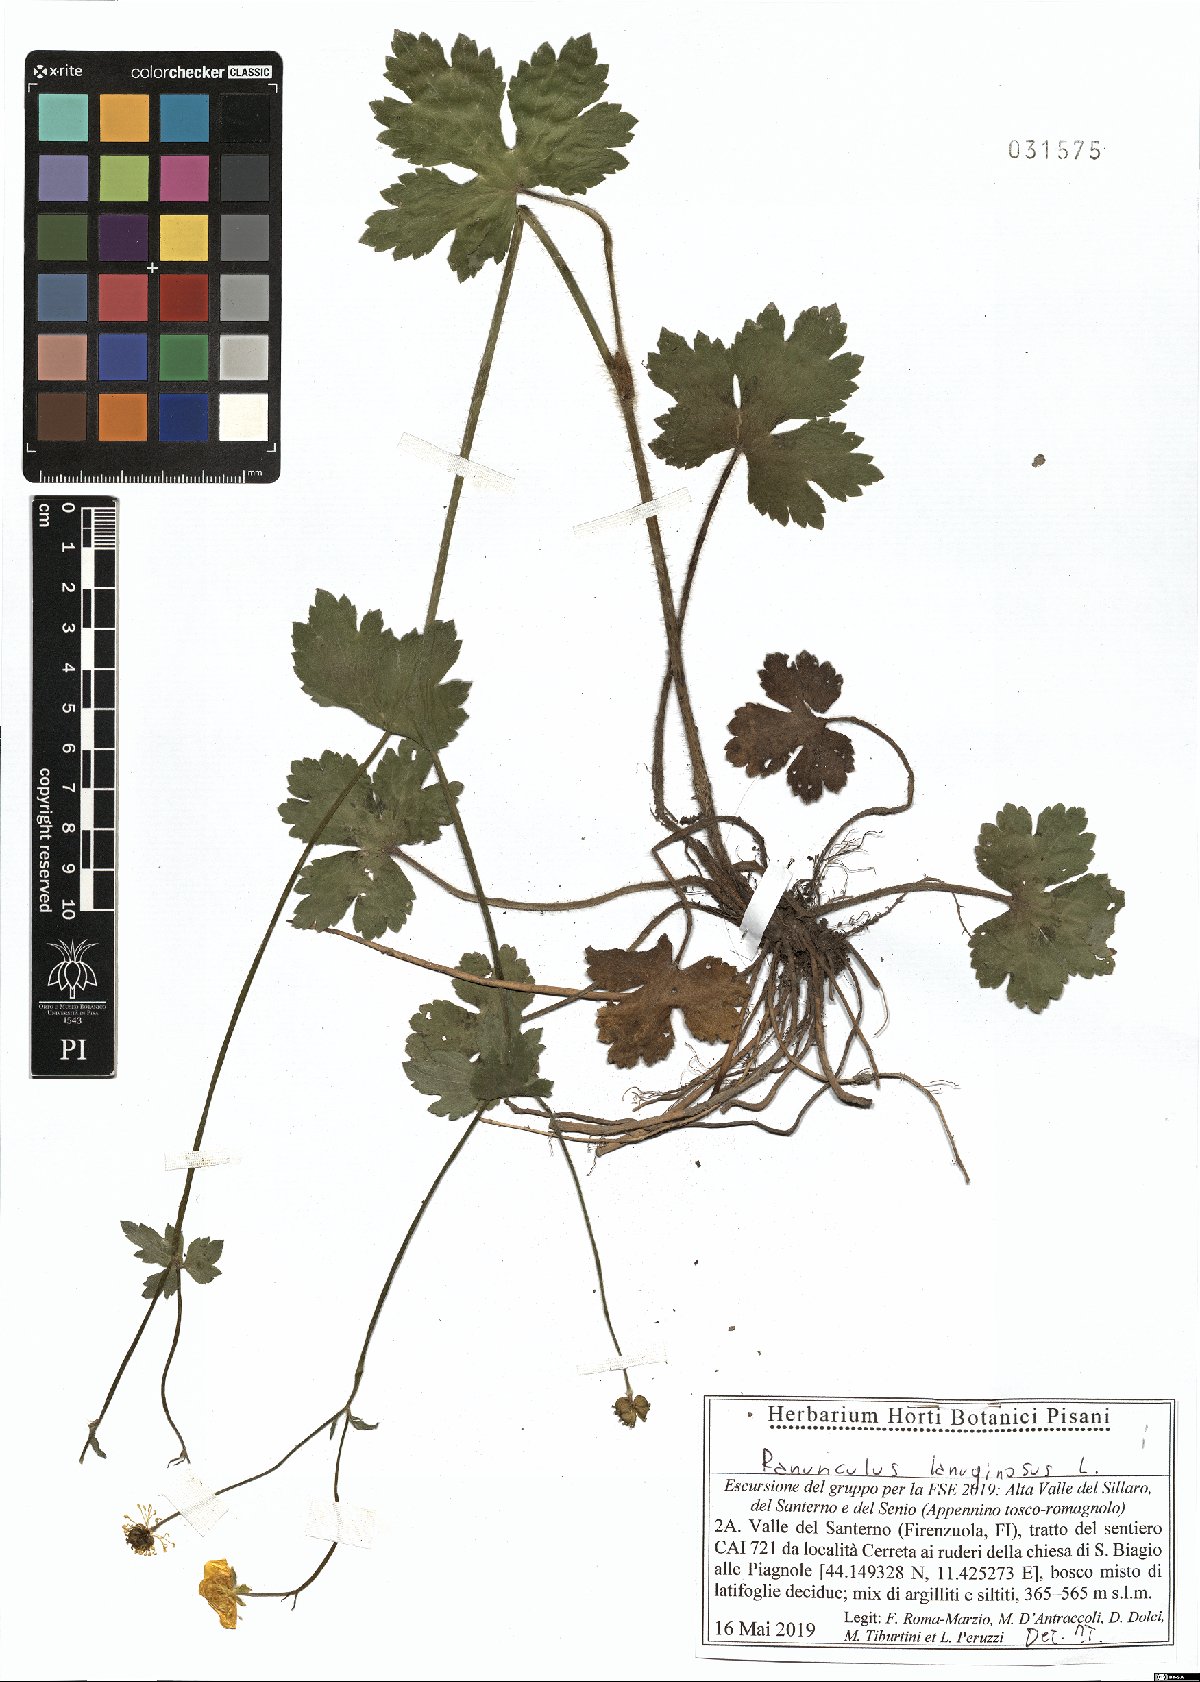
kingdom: Plantae
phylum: Tracheophyta
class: Magnoliopsida
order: Ranunculales
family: Ranunculaceae
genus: Ranunculus
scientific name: Ranunculus lanuginosus
